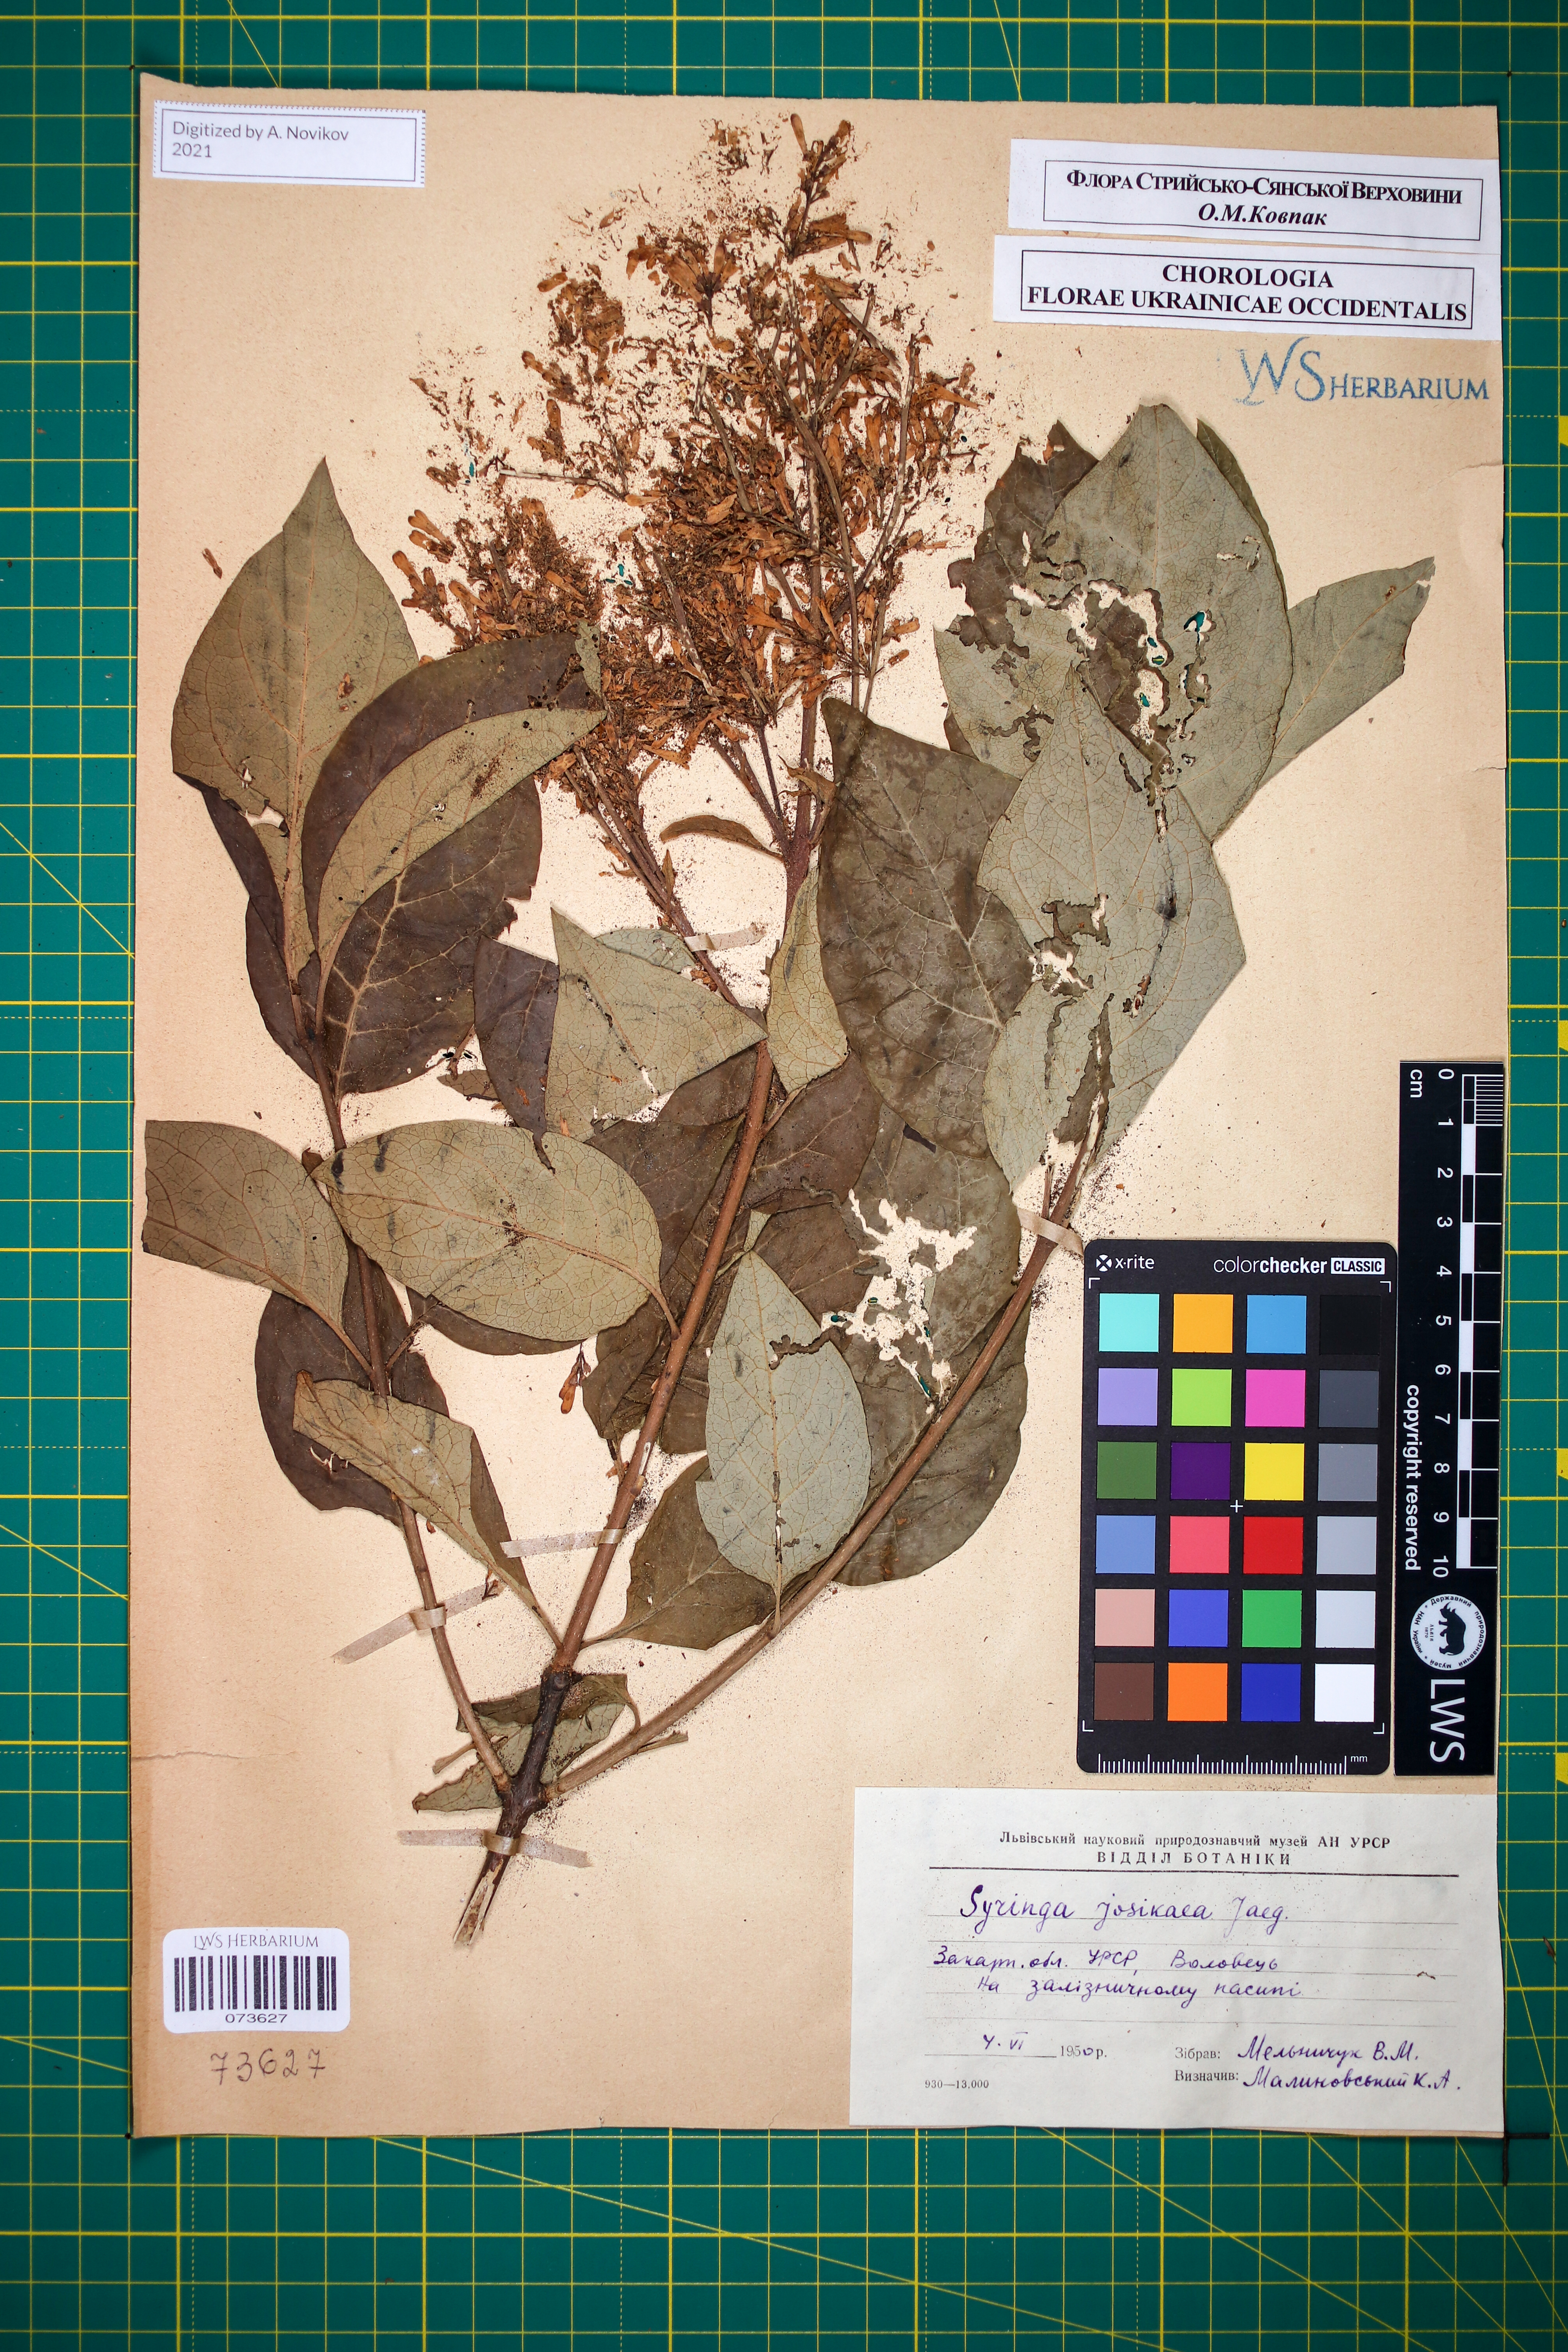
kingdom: Plantae
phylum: Tracheophyta
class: Magnoliopsida
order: Lamiales
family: Oleaceae
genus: Syringa
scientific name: Syringa josikaea
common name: Hungarian lilac
